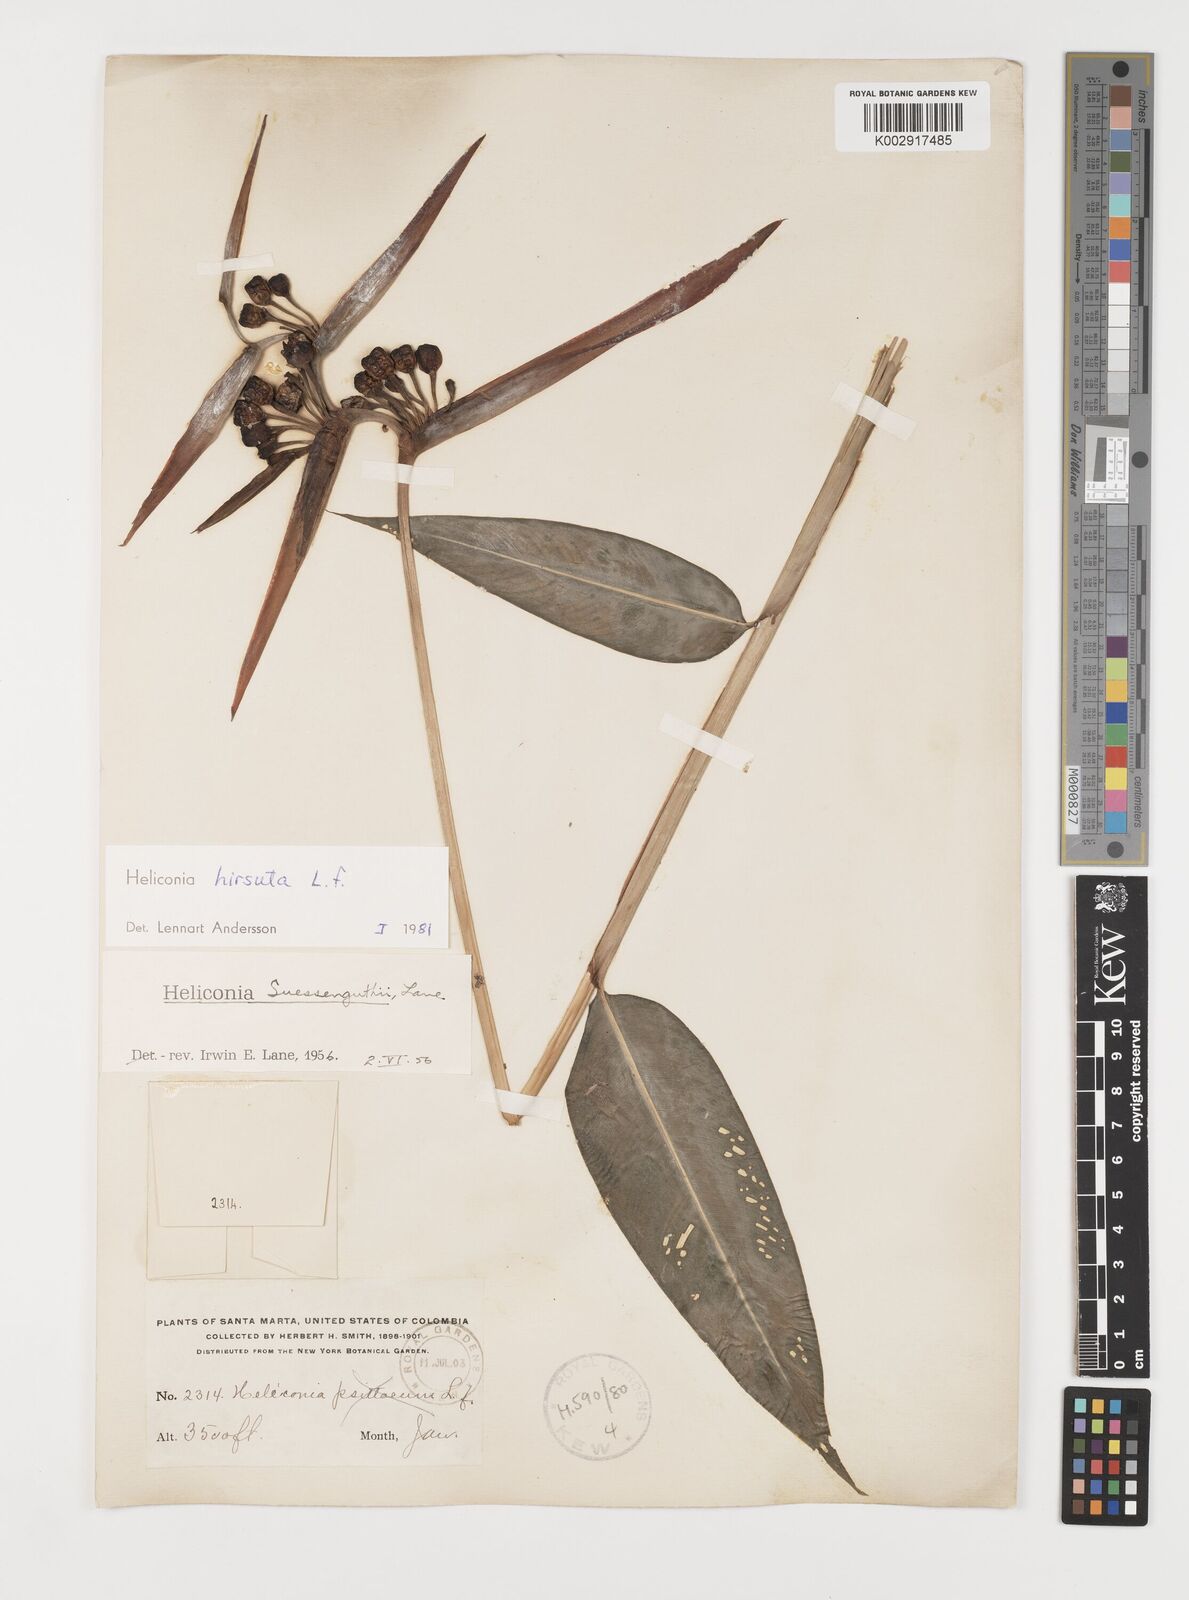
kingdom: Plantae
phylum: Tracheophyta
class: Liliopsida
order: Zingiberales
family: Heliconiaceae
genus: Heliconia
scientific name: Heliconia schiedeana
